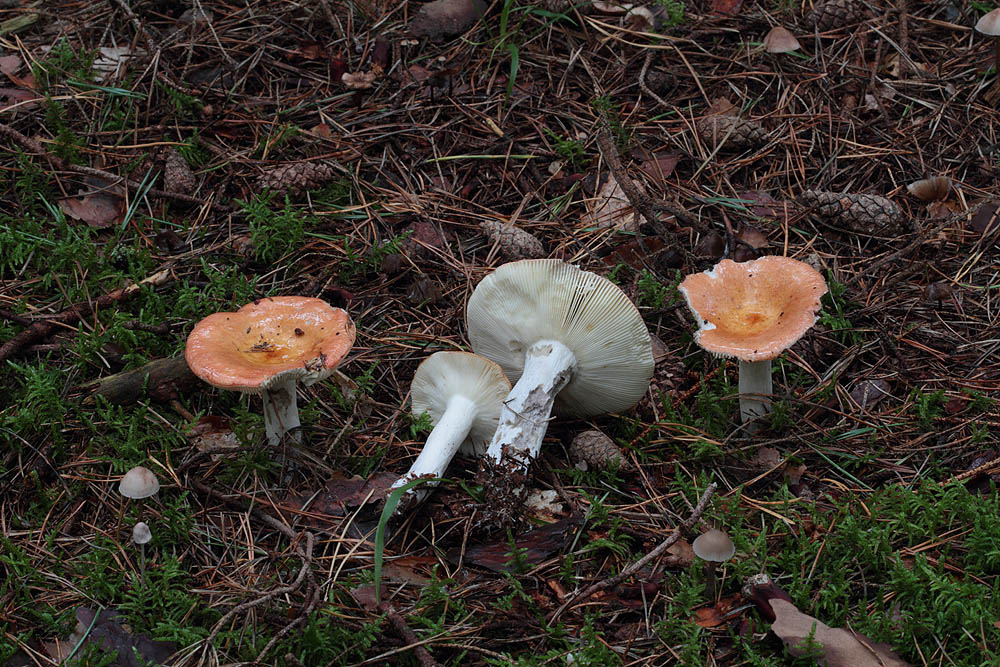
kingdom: Fungi
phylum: Basidiomycota
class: Agaricomycetes
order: Russulales
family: Russulaceae
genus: Russula
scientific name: Russula decolorans
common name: afblegende skørhat
